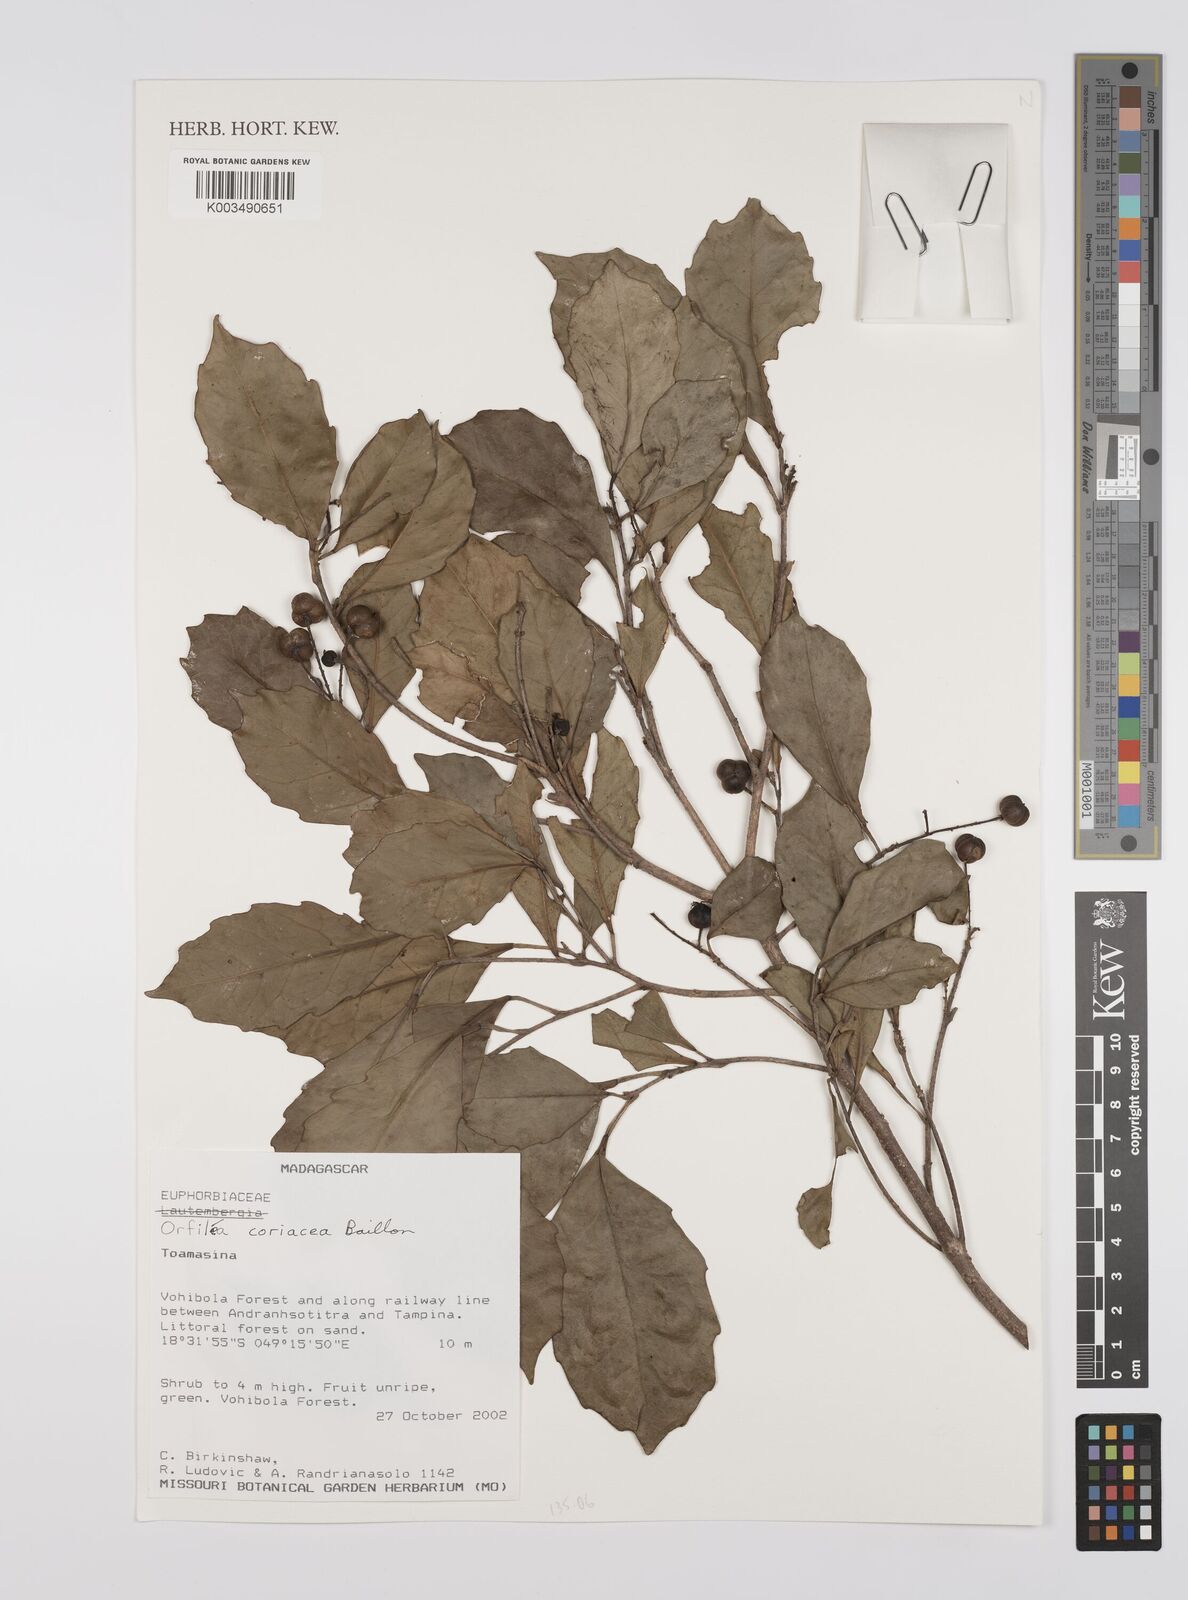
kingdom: Plantae
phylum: Tracheophyta
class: Magnoliopsida
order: Malpighiales
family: Euphorbiaceae
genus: Orfilea
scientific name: Orfilea coriacea
